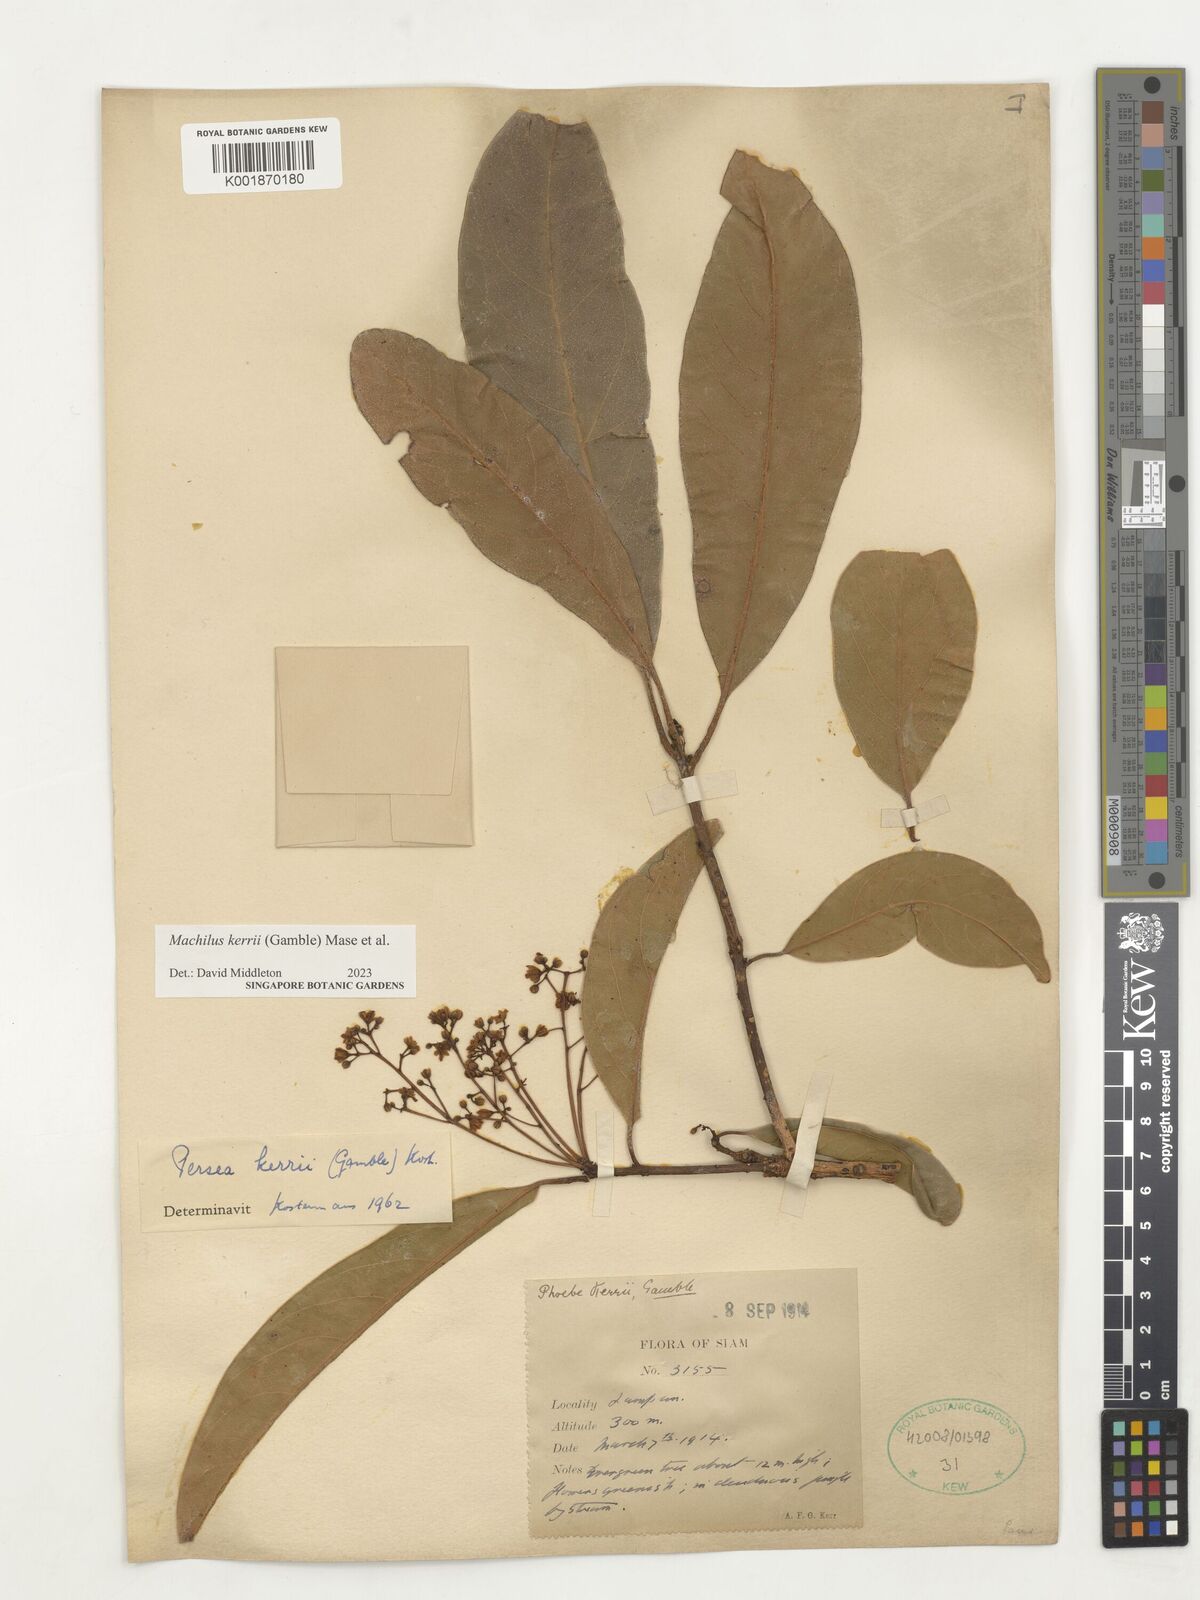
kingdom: Plantae
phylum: Tracheophyta
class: Magnoliopsida
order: Laurales
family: Lauraceae
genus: Machilus
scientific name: Machilus
